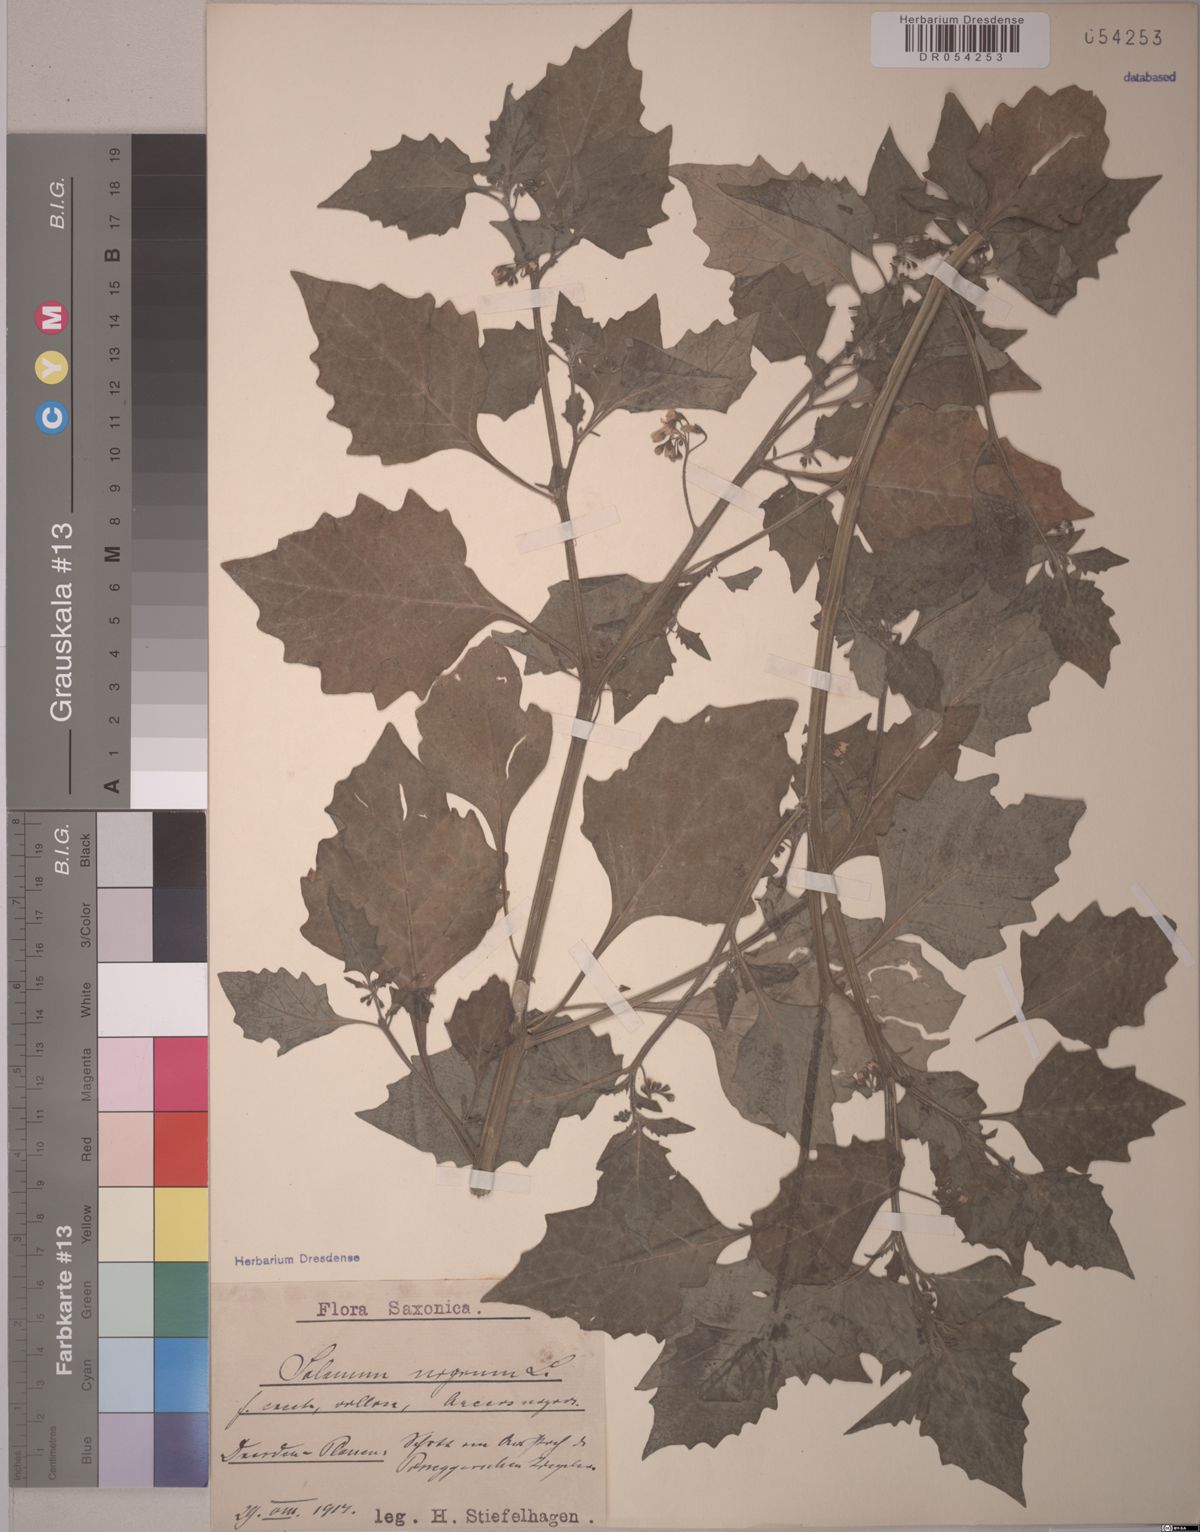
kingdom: Plantae
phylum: Tracheophyta
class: Magnoliopsida
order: Solanales
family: Solanaceae
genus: Solanum
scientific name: Solanum nigrum
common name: Black nightshade
